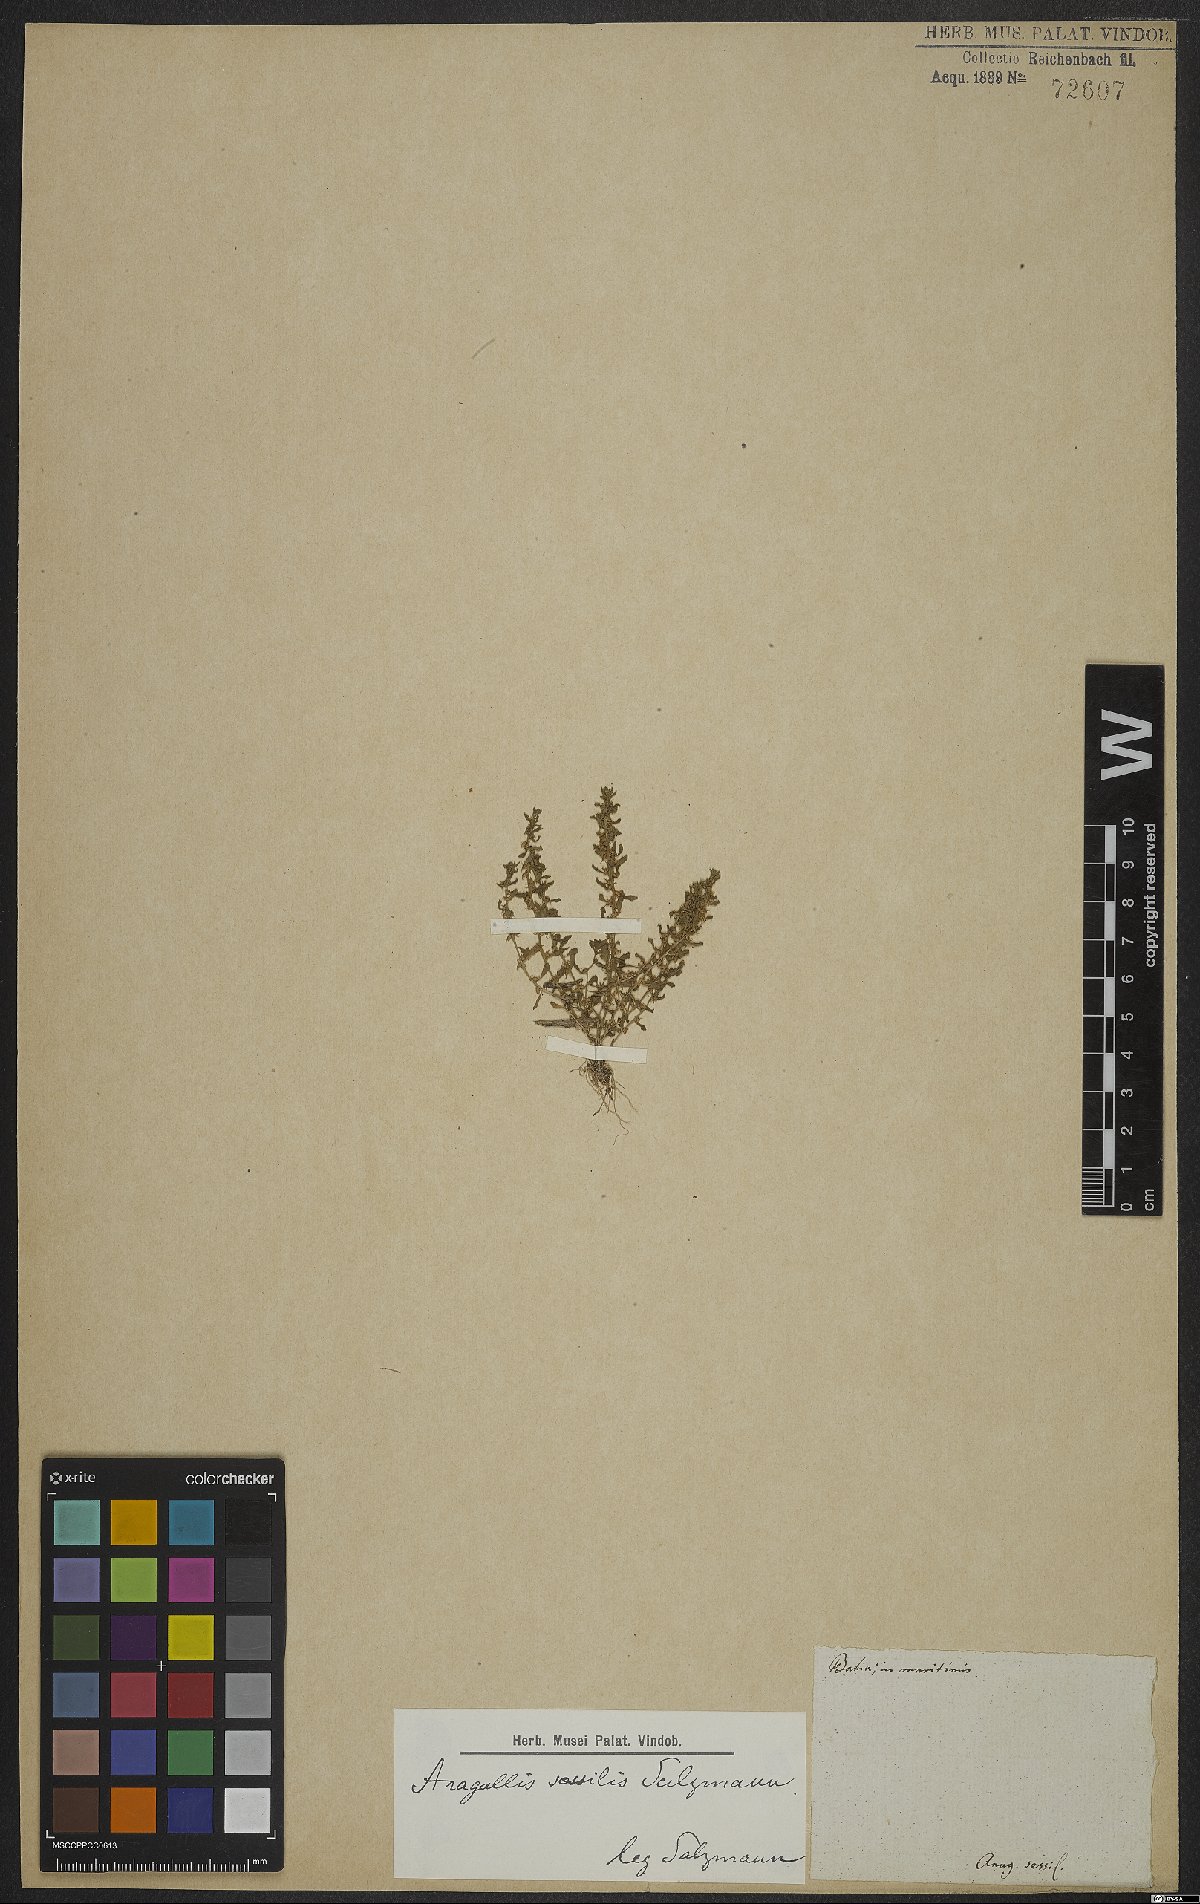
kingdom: Plantae
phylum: Tracheophyta
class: Magnoliopsida
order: Ericales
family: Primulaceae
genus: Lysimachia
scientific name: Lysimachia minima
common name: Chaffweed
